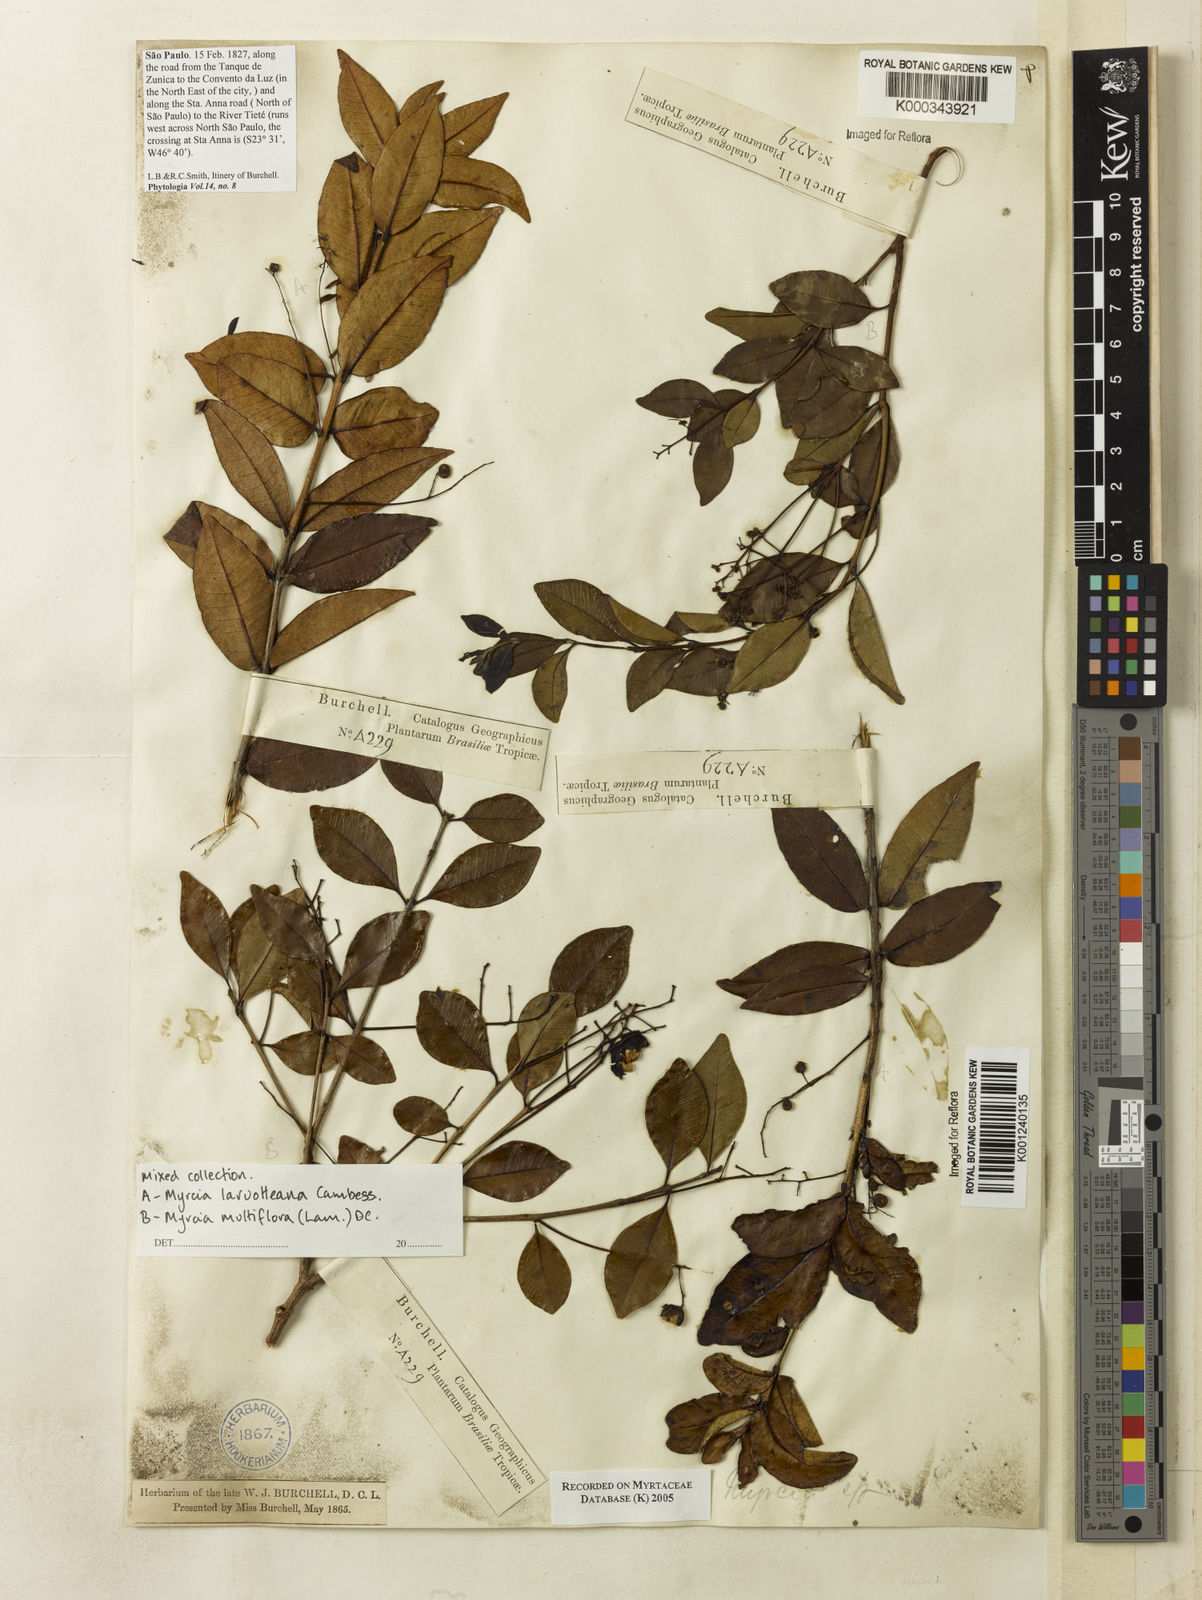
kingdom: Plantae
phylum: Tracheophyta
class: Magnoliopsida
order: Myrtales
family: Myrtaceae
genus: Myrcia
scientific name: Myrcia multiflora
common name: Pedra hume
